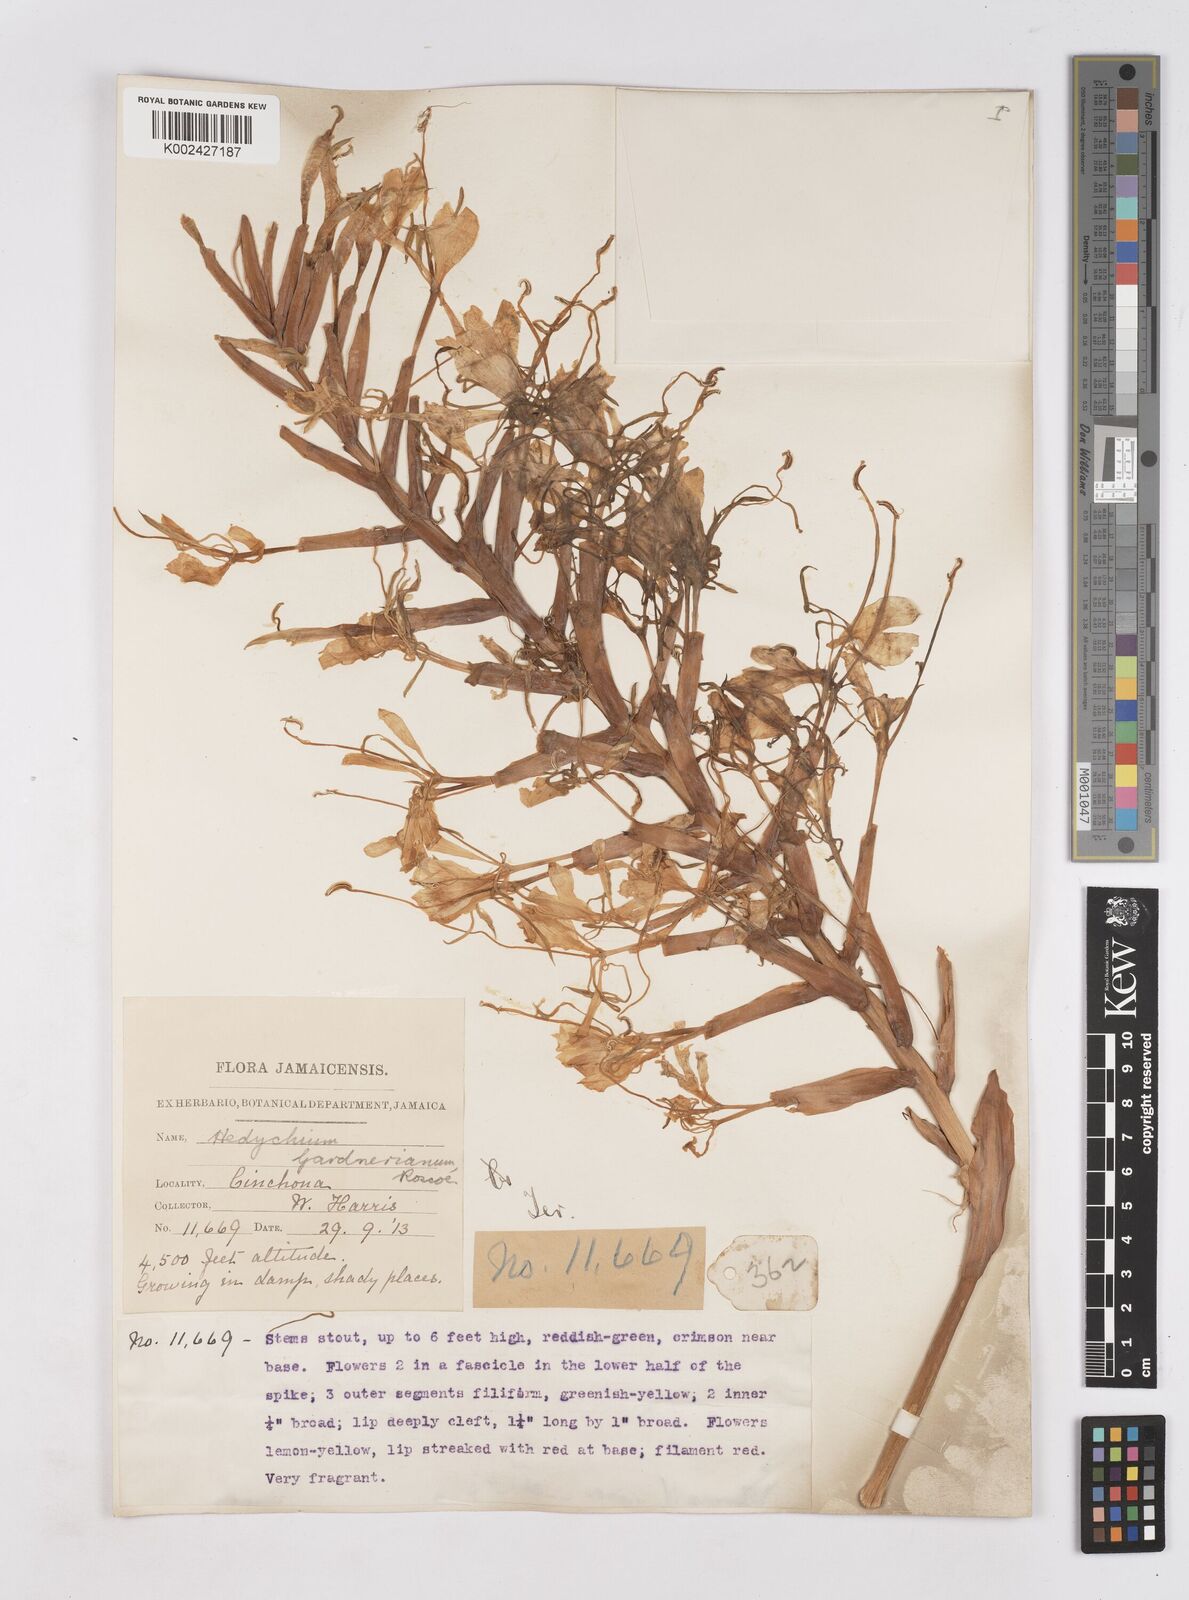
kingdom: Plantae
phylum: Tracheophyta
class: Liliopsida
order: Zingiberales
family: Zingiberaceae
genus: Hedychium
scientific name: Hedychium gardnerianum
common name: Himalayan ginger
